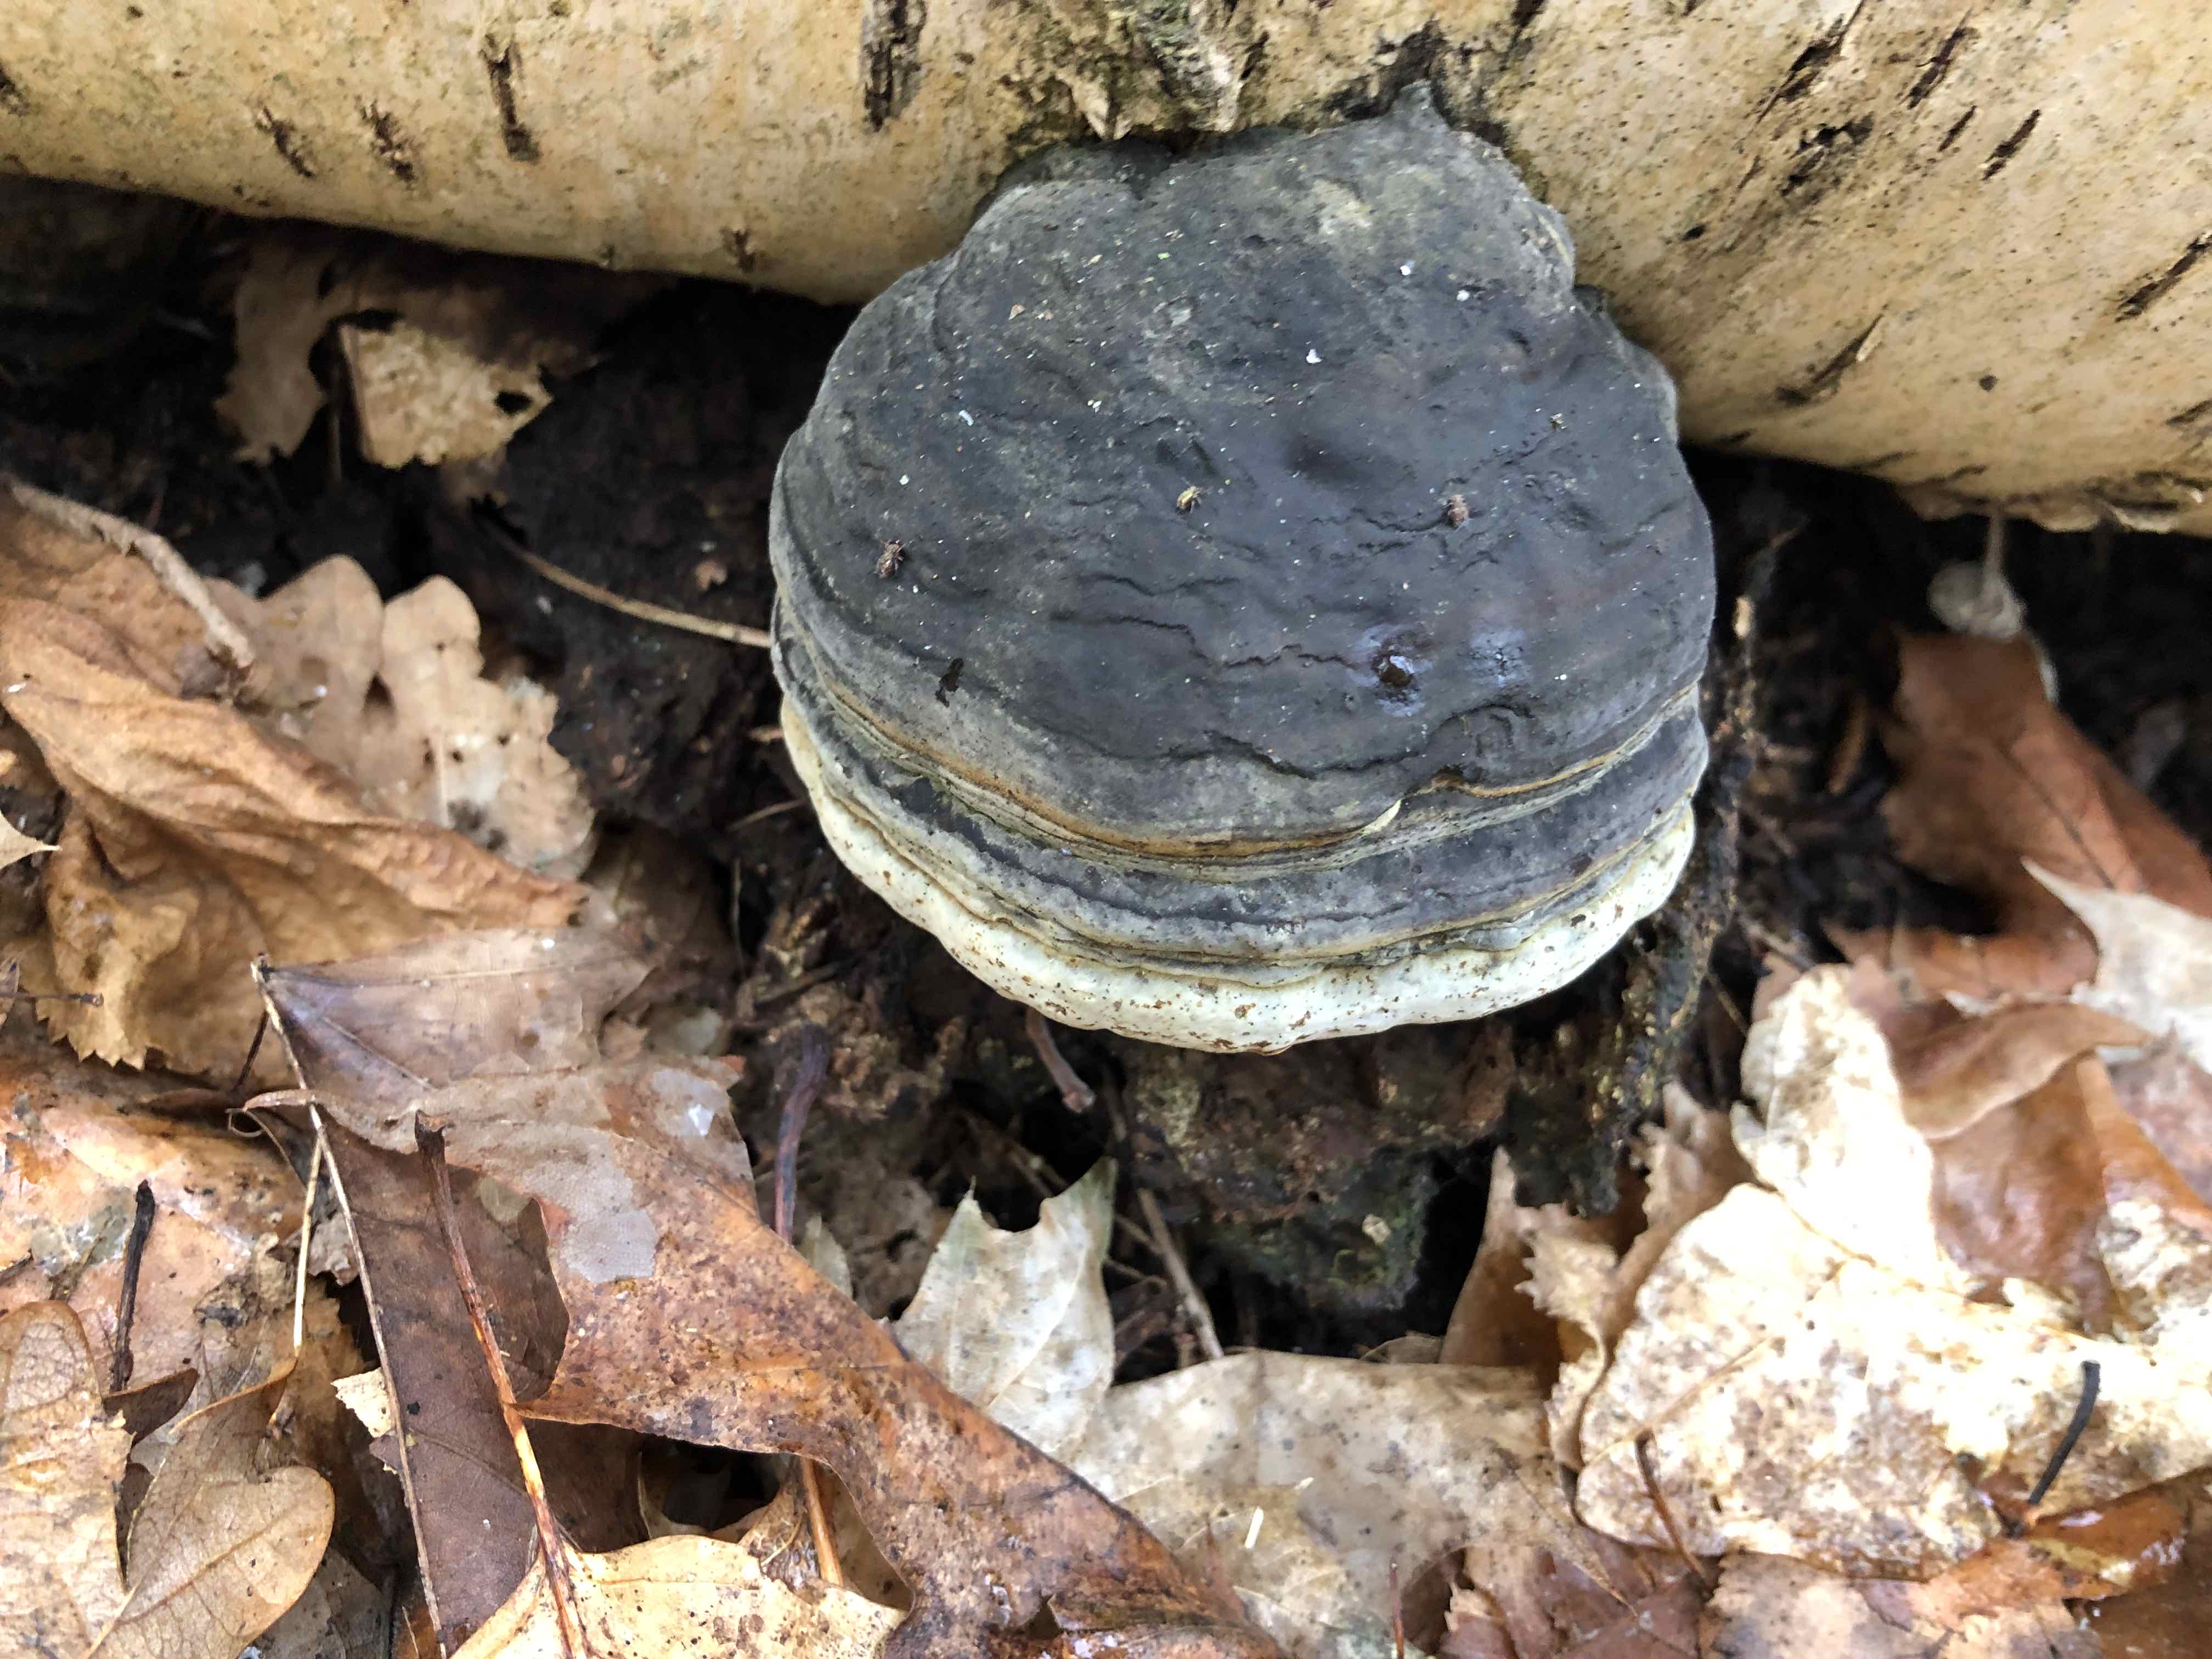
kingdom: Fungi
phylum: Basidiomycota
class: Agaricomycetes
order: Polyporales
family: Polyporaceae
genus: Fomes
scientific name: Fomes fomentarius
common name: tøndersvamp
